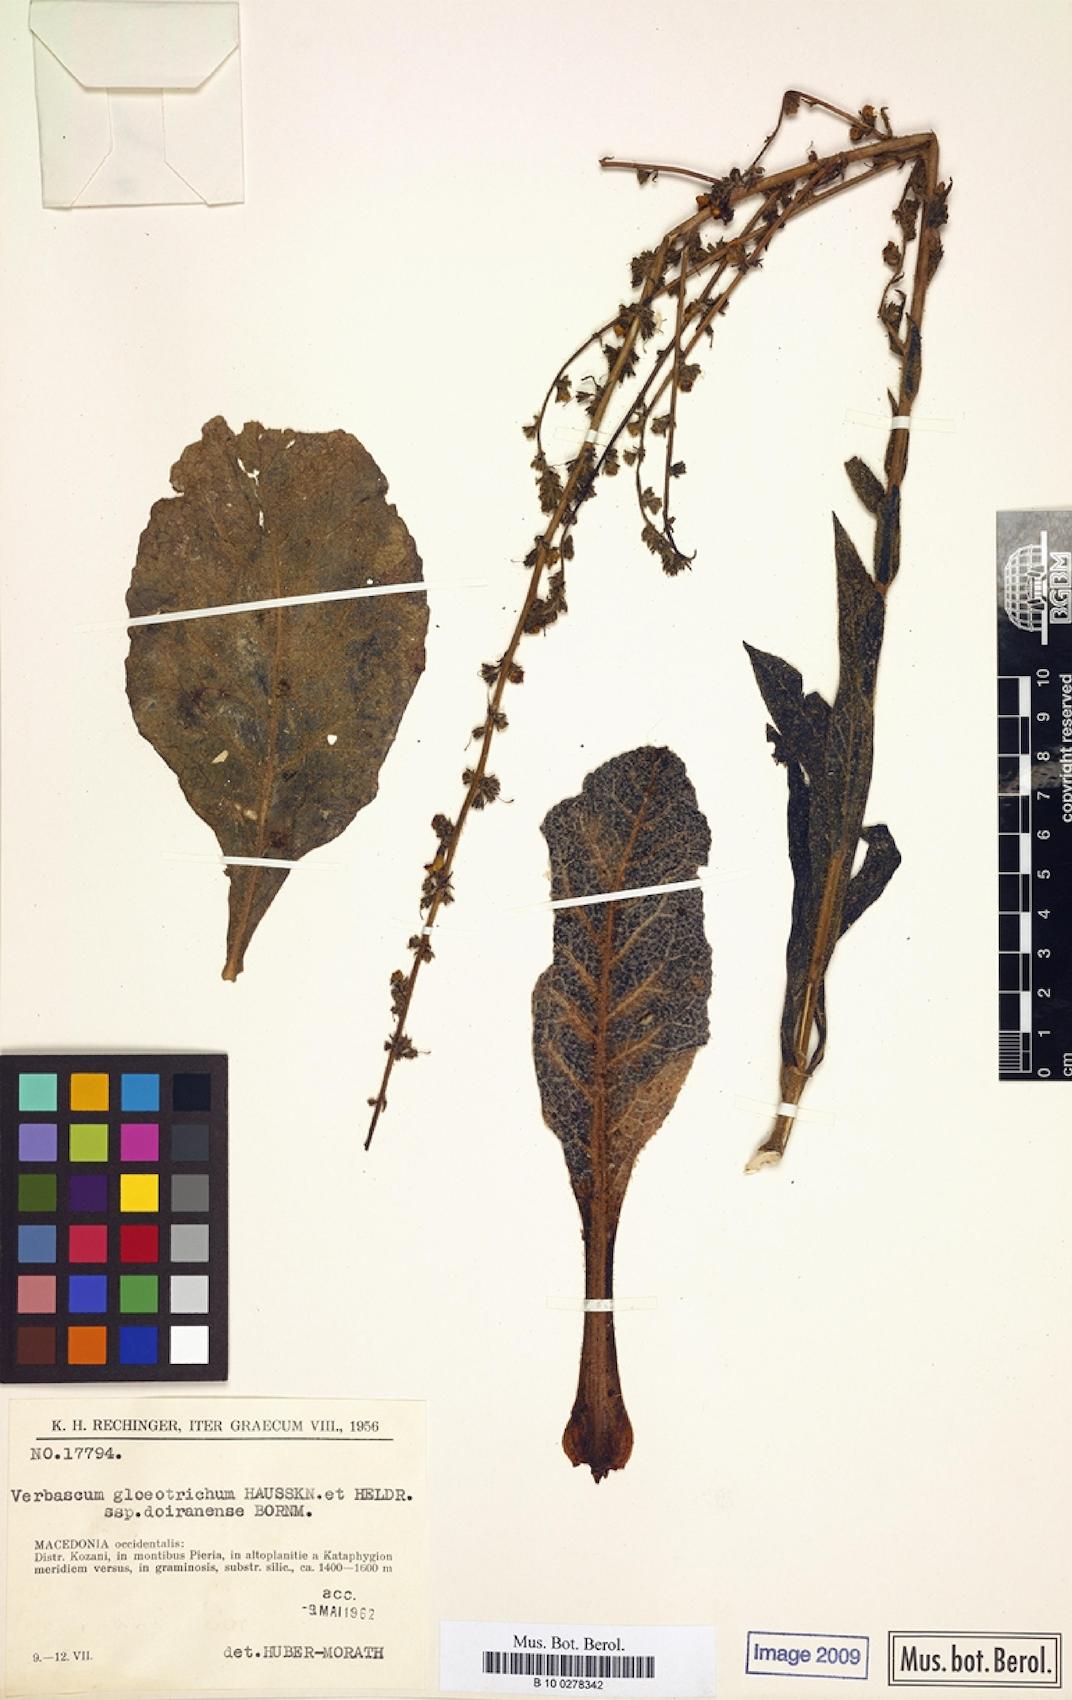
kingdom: Plantae
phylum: Tracheophyta
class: Magnoliopsida
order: Lamiales
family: Scrophulariaceae
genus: Verbascum
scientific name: Verbascum gloeotrichum
